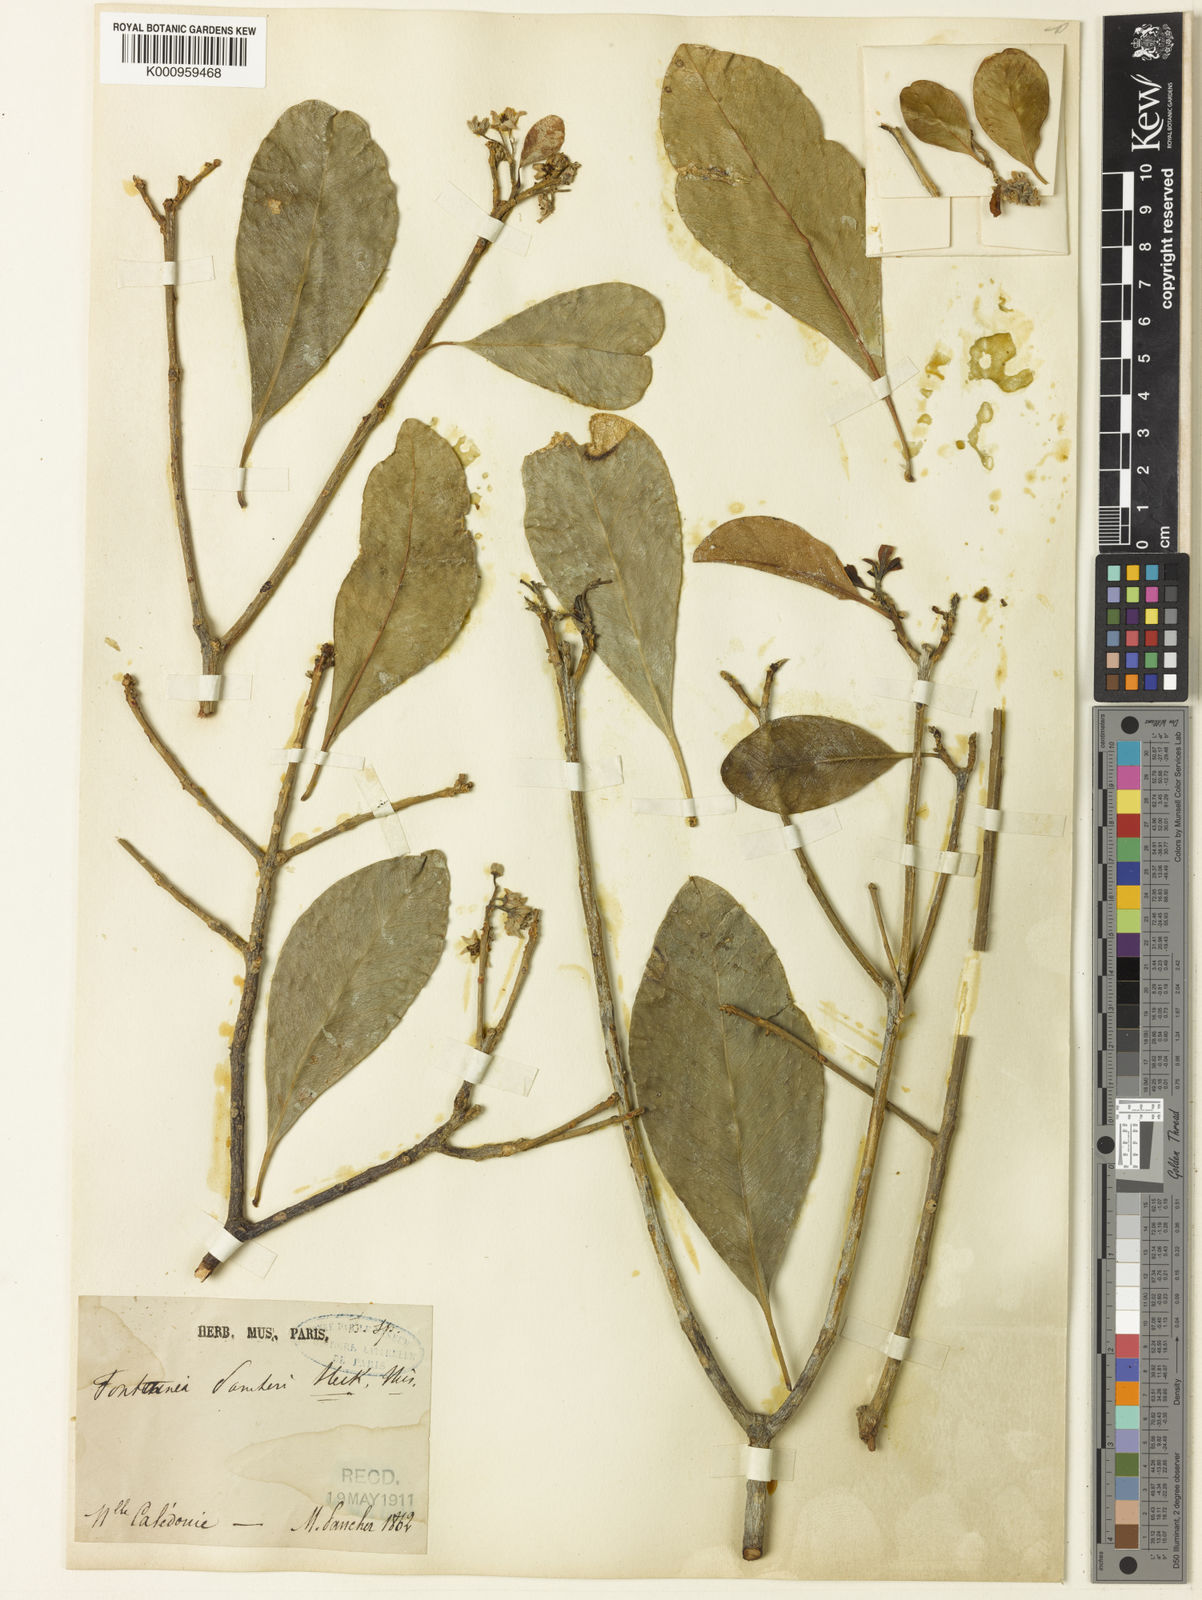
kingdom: Plantae
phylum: Tracheophyta
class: Magnoliopsida
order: Malpighiales
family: Euphorbiaceae
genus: Fontainea
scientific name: Fontainea pancheri
